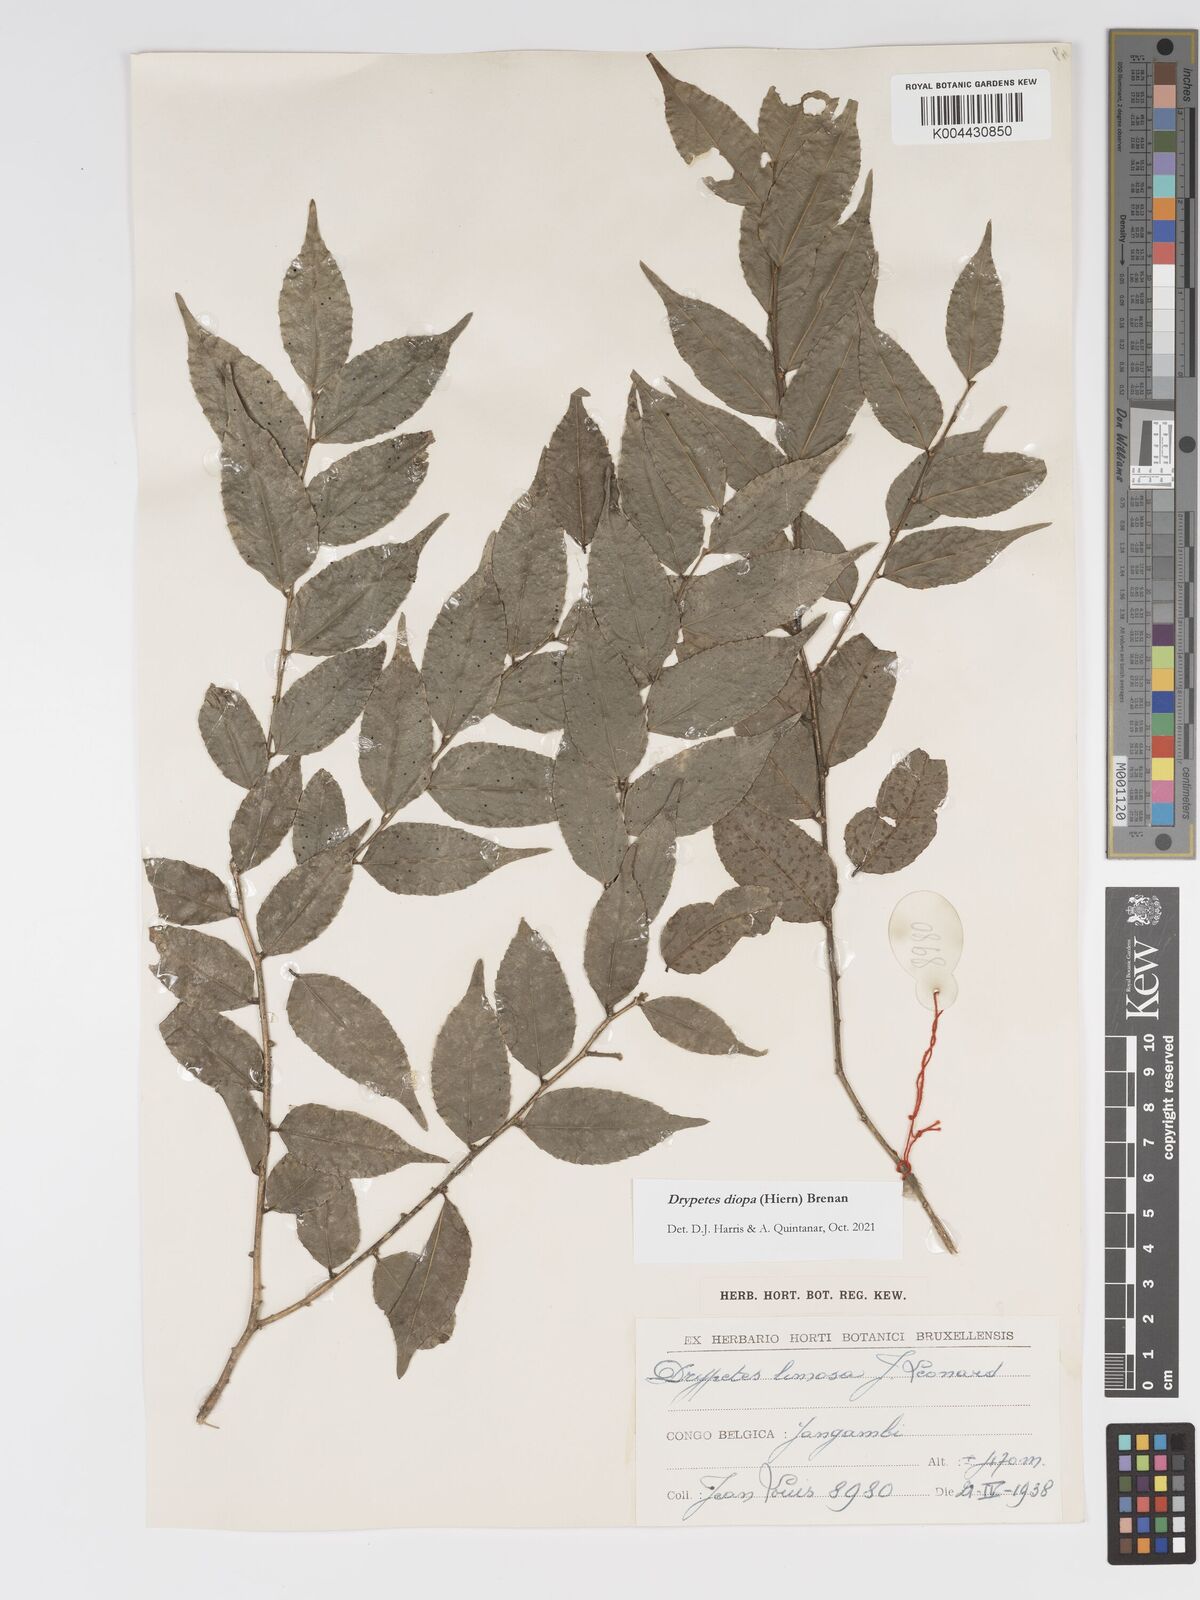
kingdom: Plantae
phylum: Tracheophyta
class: Magnoliopsida
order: Malpighiales
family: Putranjivaceae
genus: Drypetes
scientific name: Drypetes diopa
